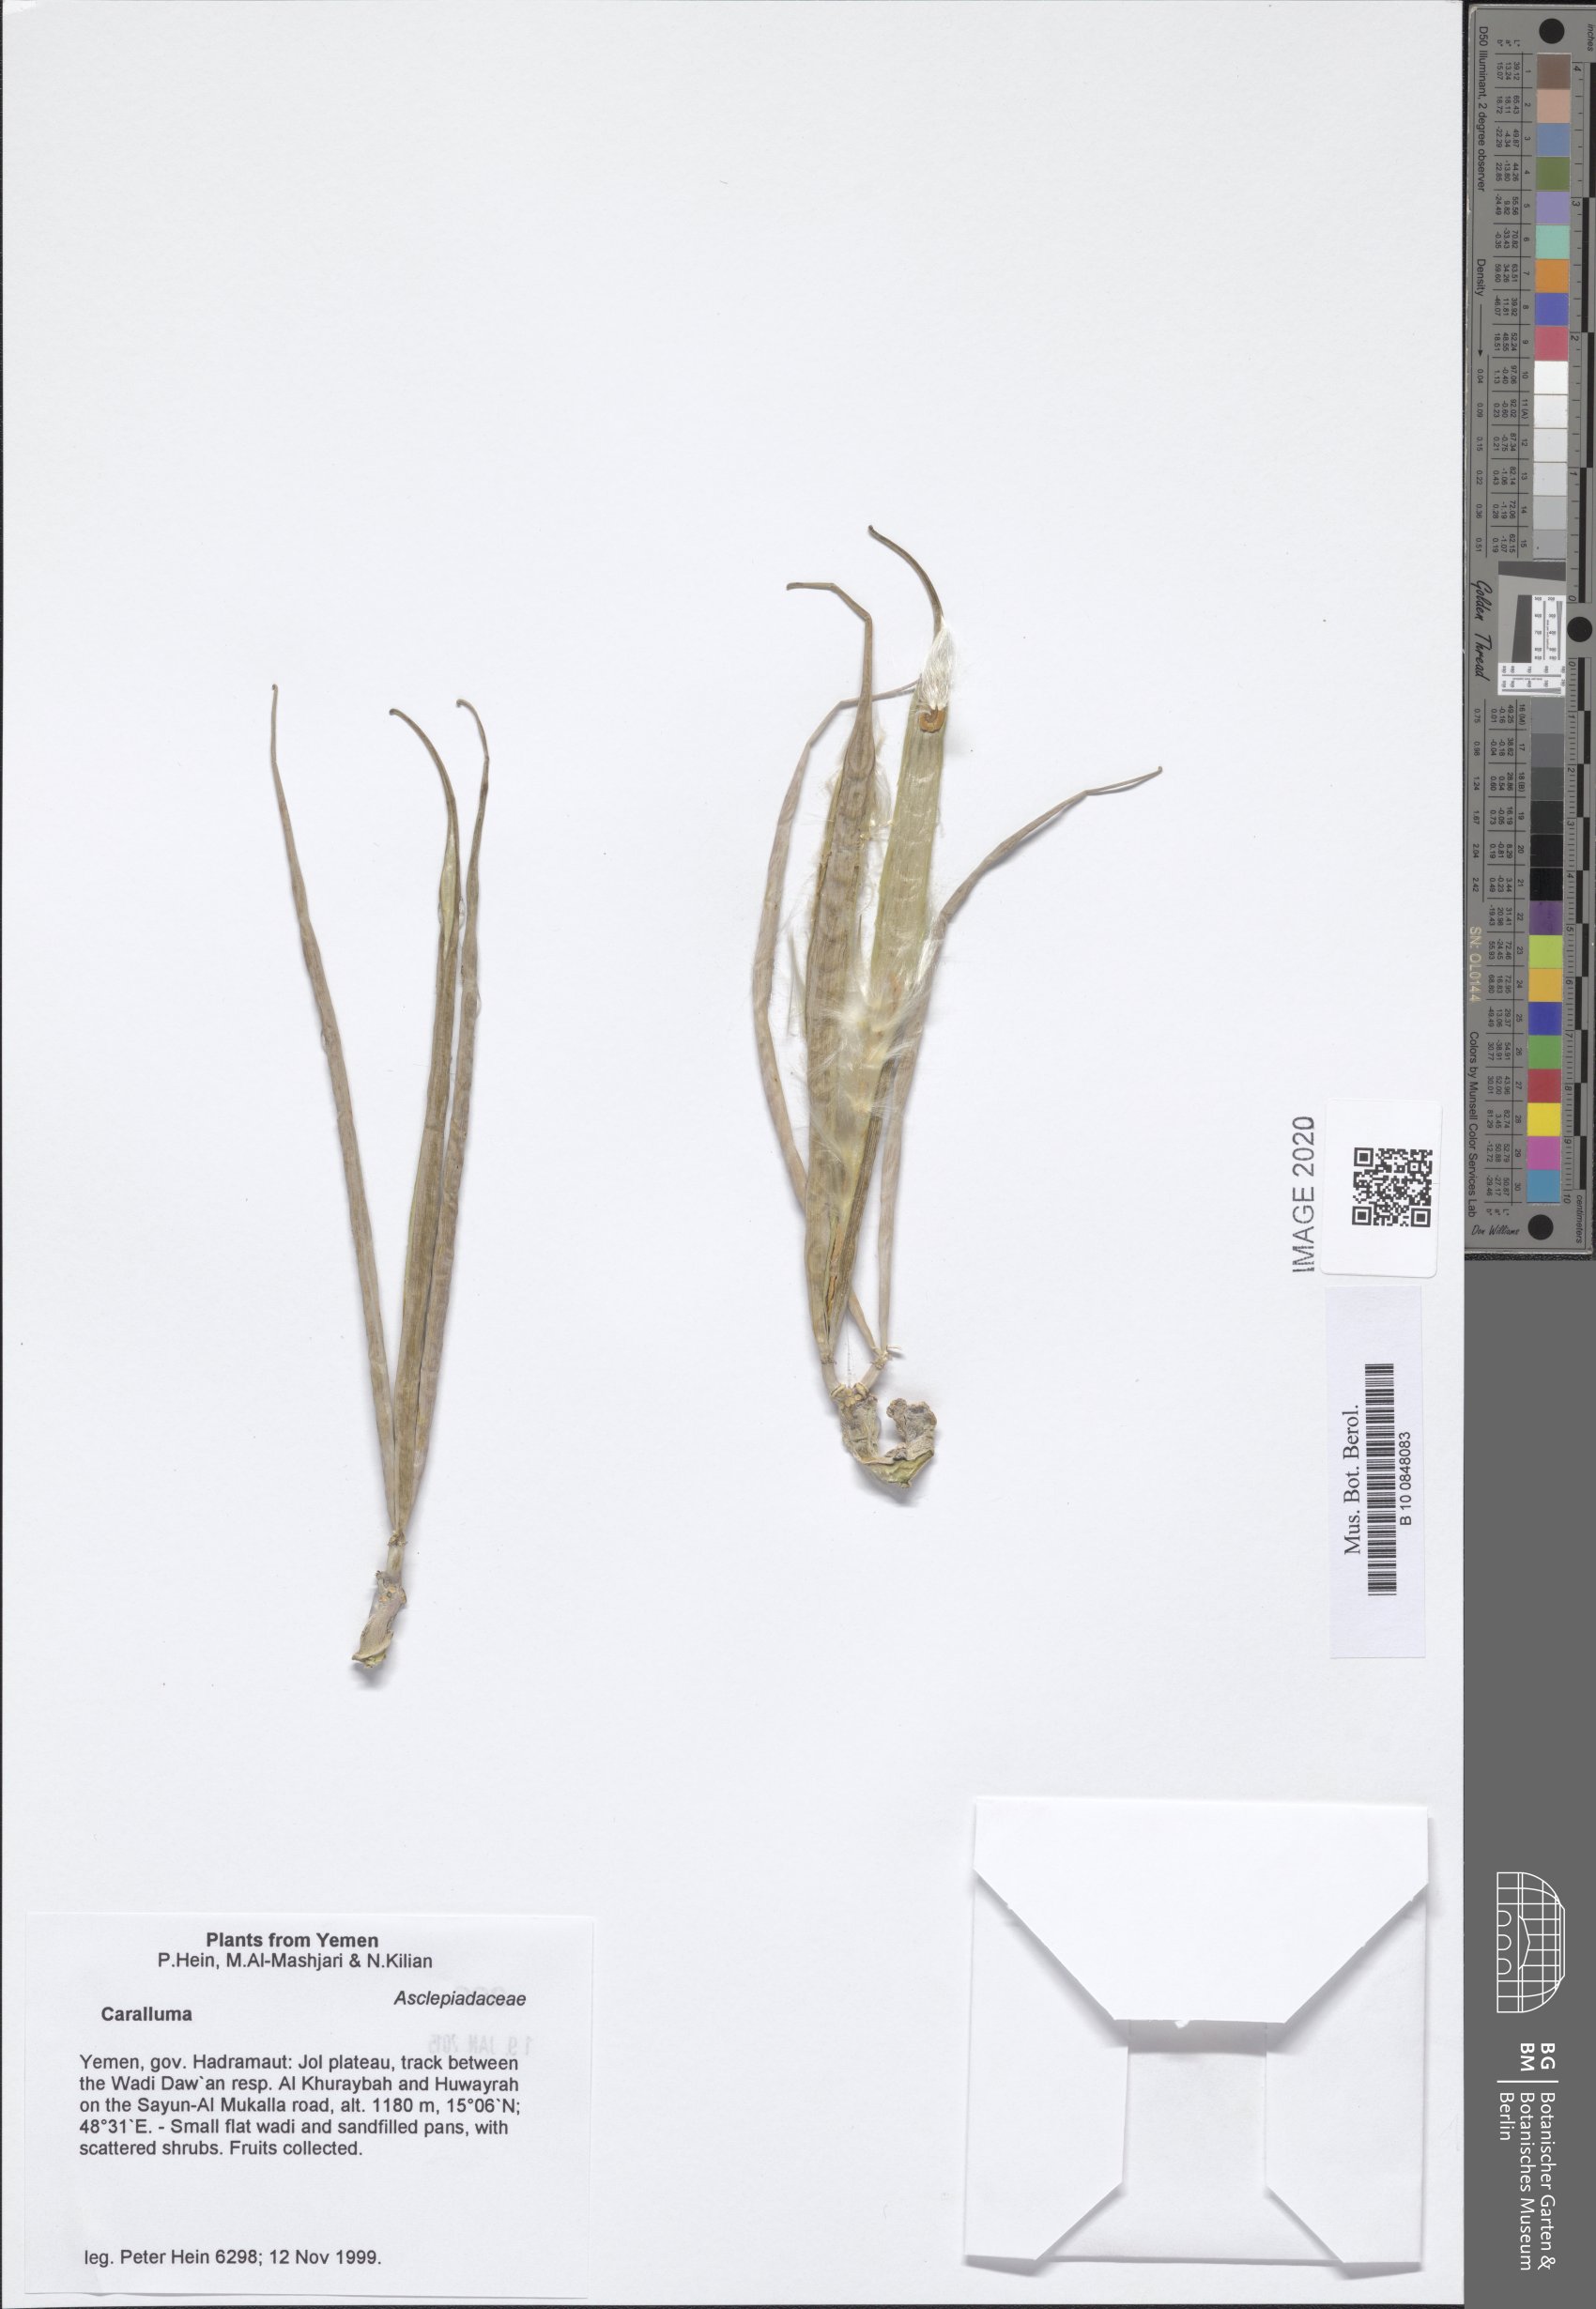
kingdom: Plantae
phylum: Tracheophyta
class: Magnoliopsida
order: Gentianales
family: Apocynaceae
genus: Caralluma
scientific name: Caralluma
